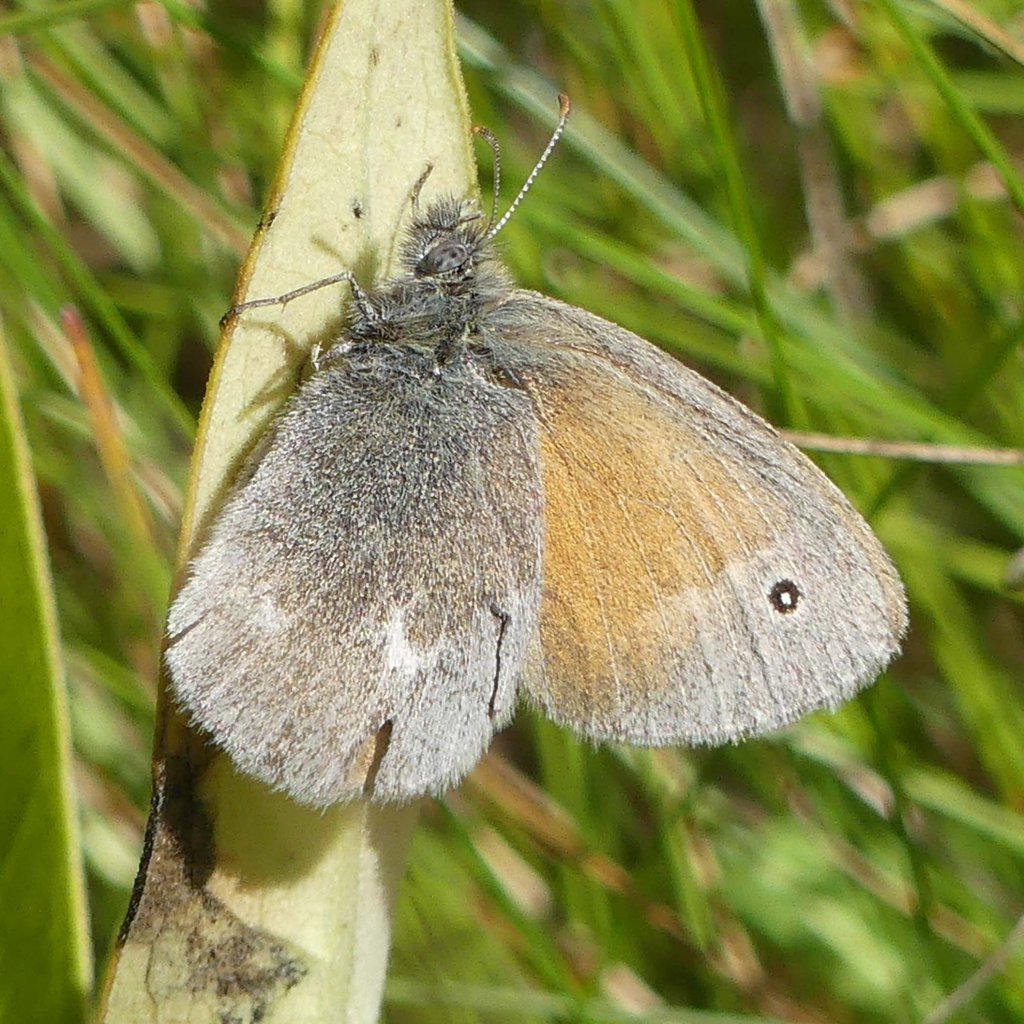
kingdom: Animalia
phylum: Arthropoda
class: Insecta
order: Lepidoptera
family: Nymphalidae
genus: Coenonympha
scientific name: Coenonympha tullia
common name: Large Heath
